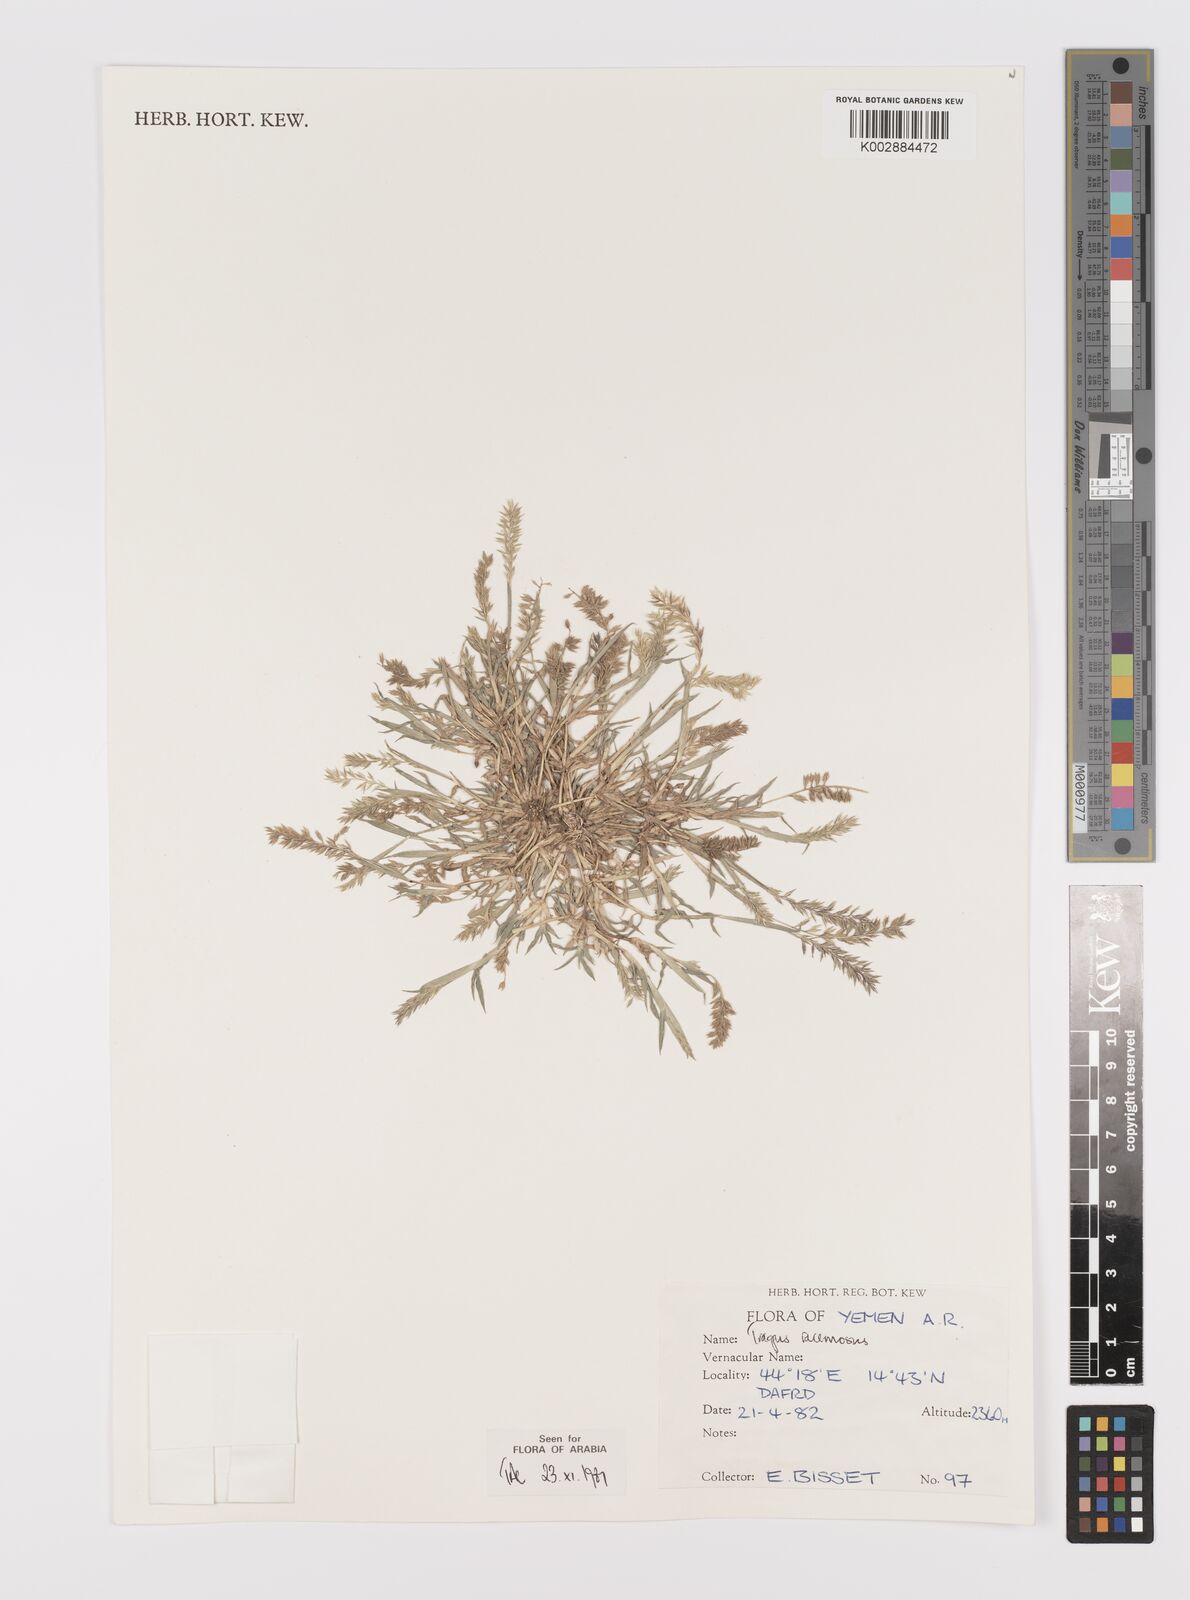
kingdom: Plantae
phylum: Tracheophyta
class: Liliopsida
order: Poales
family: Poaceae
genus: Tragus
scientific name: Tragus racemosus
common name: European bur-grass
